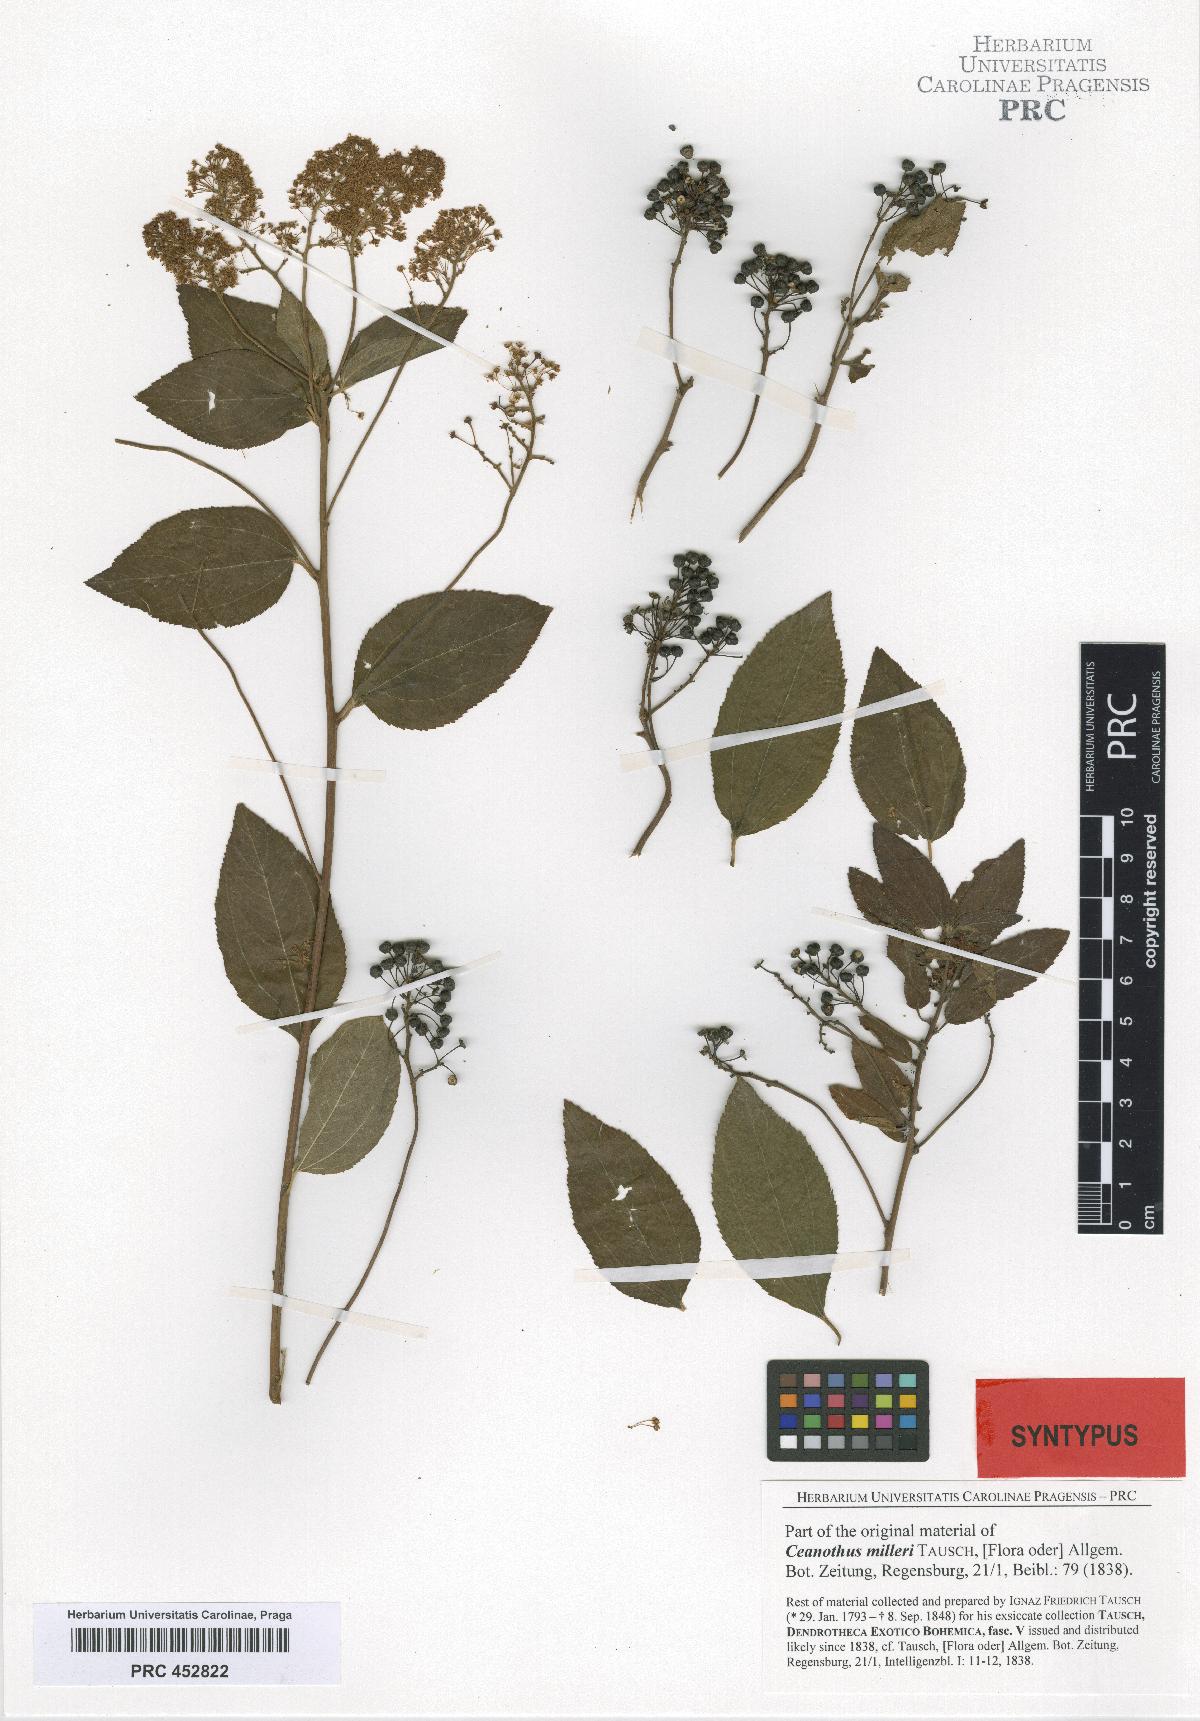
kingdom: Plantae
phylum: Tracheophyta
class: Magnoliopsida
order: Rosales
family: Rhamnaceae
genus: Ceanothus
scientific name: Ceanothus americanus
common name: Redroot
